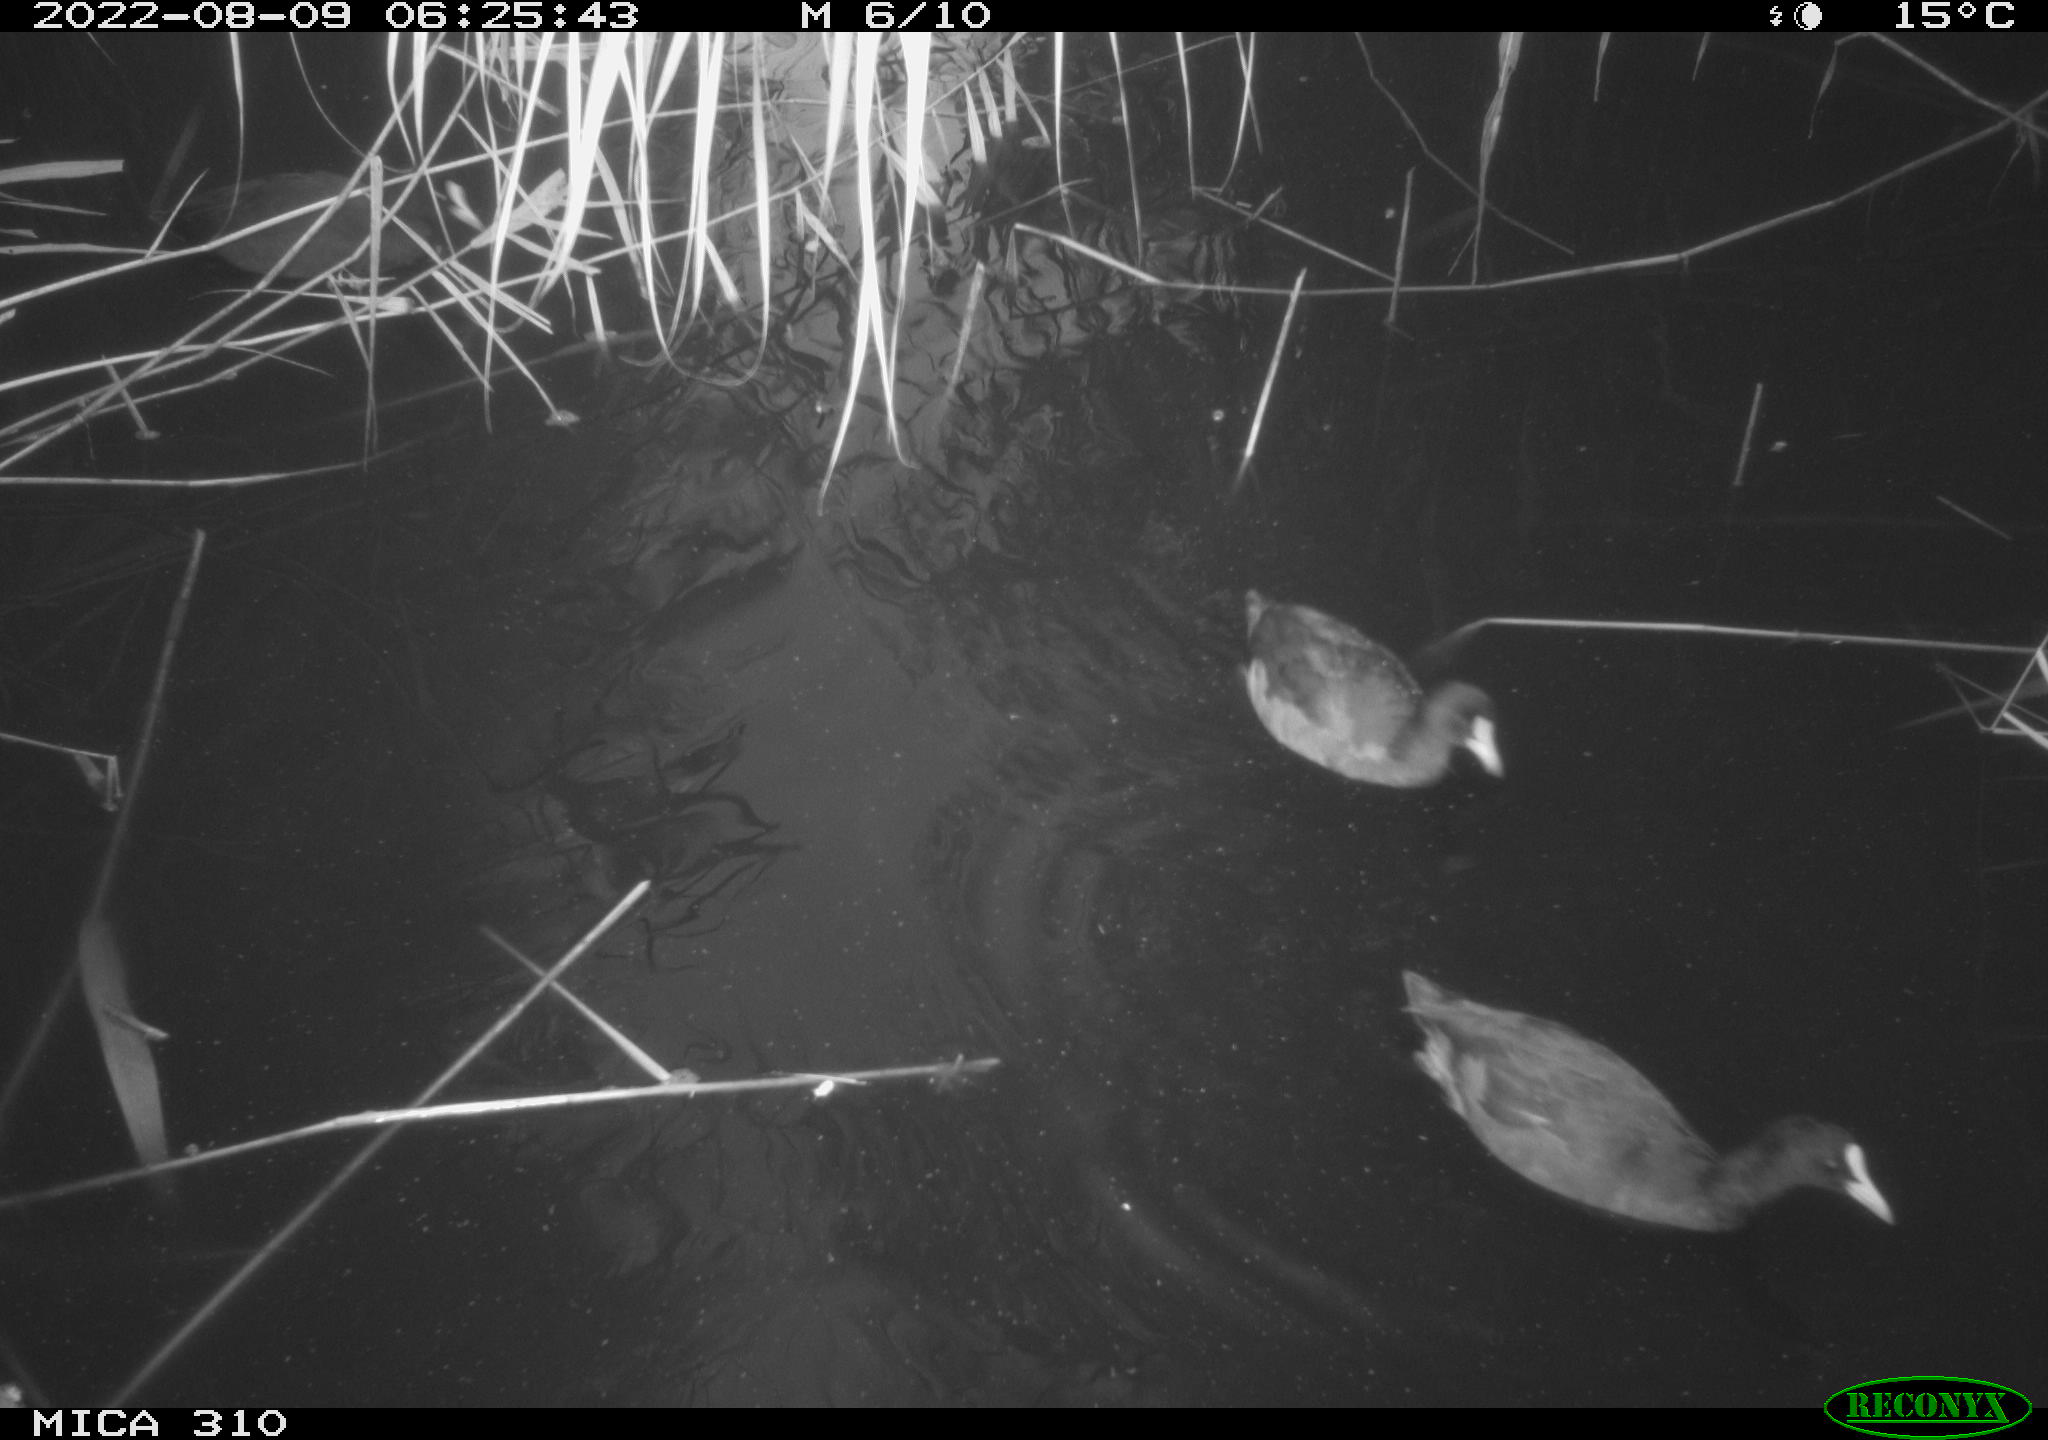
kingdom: Animalia
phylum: Chordata
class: Aves
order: Gruiformes
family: Rallidae
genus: Gallinula
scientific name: Gallinula chloropus
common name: Common moorhen
